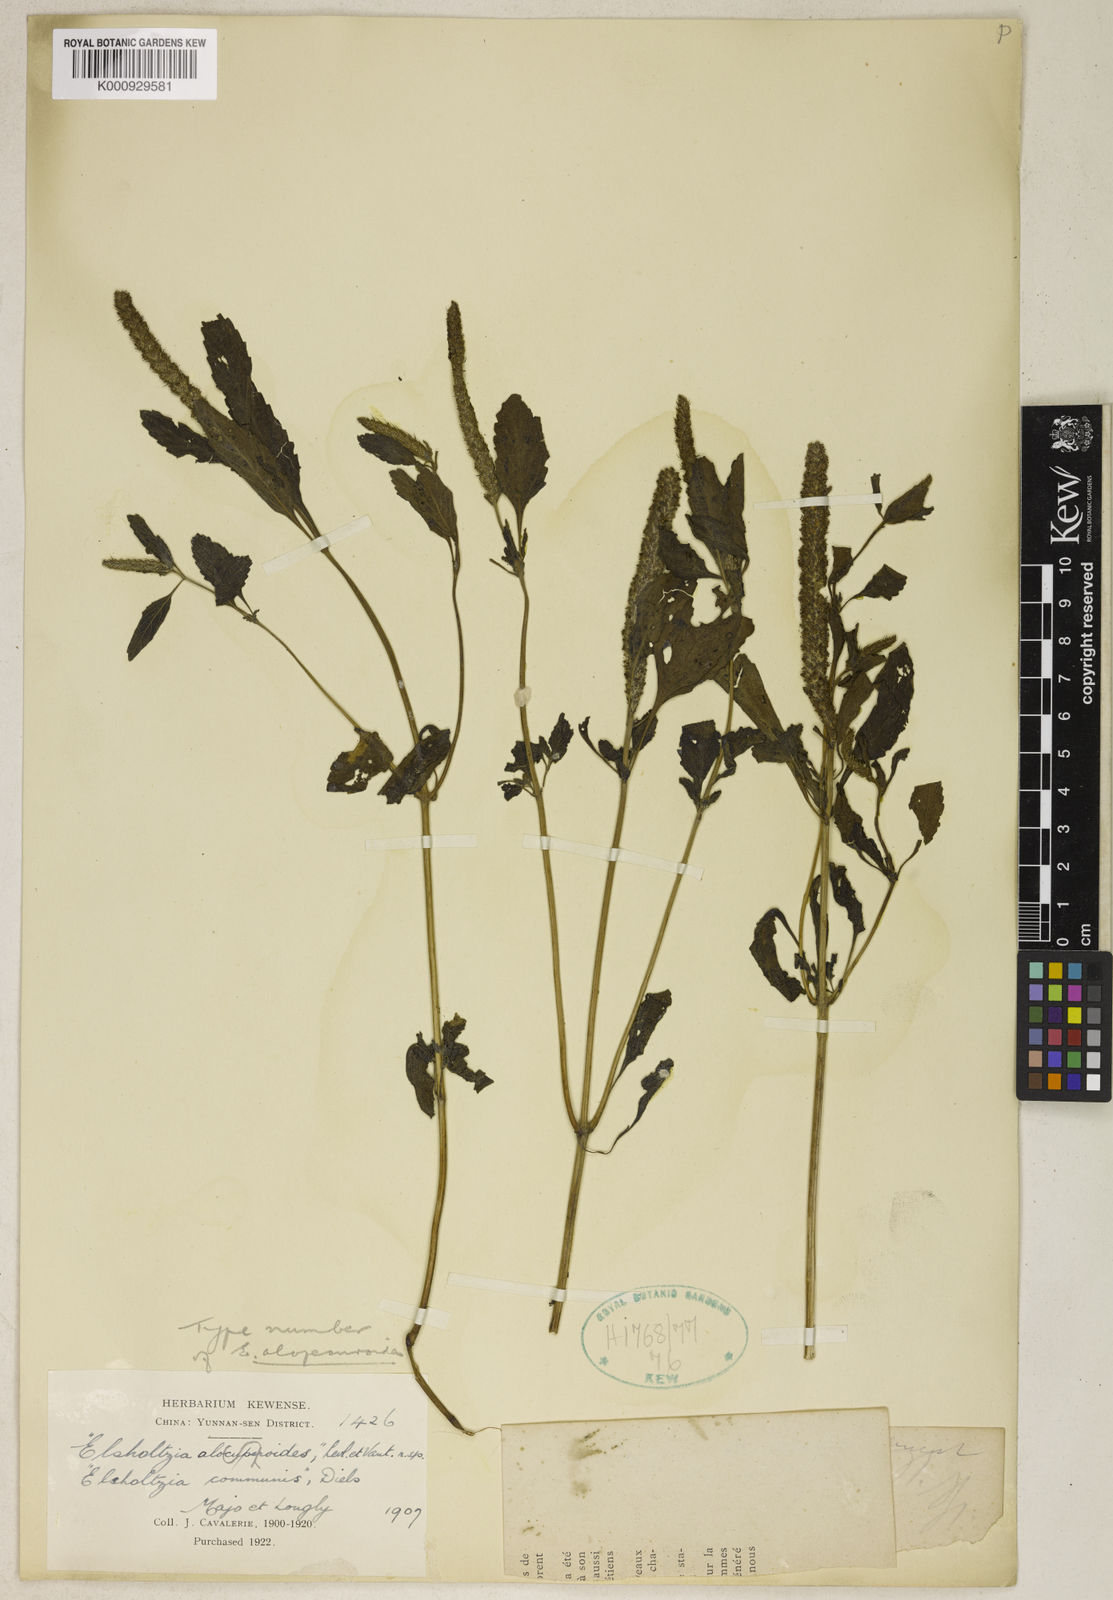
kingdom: Plantae
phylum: Tracheophyta
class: Magnoliopsida
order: Lamiales
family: Lamiaceae
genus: Elsholtzia
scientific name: Elsholtzia communis
